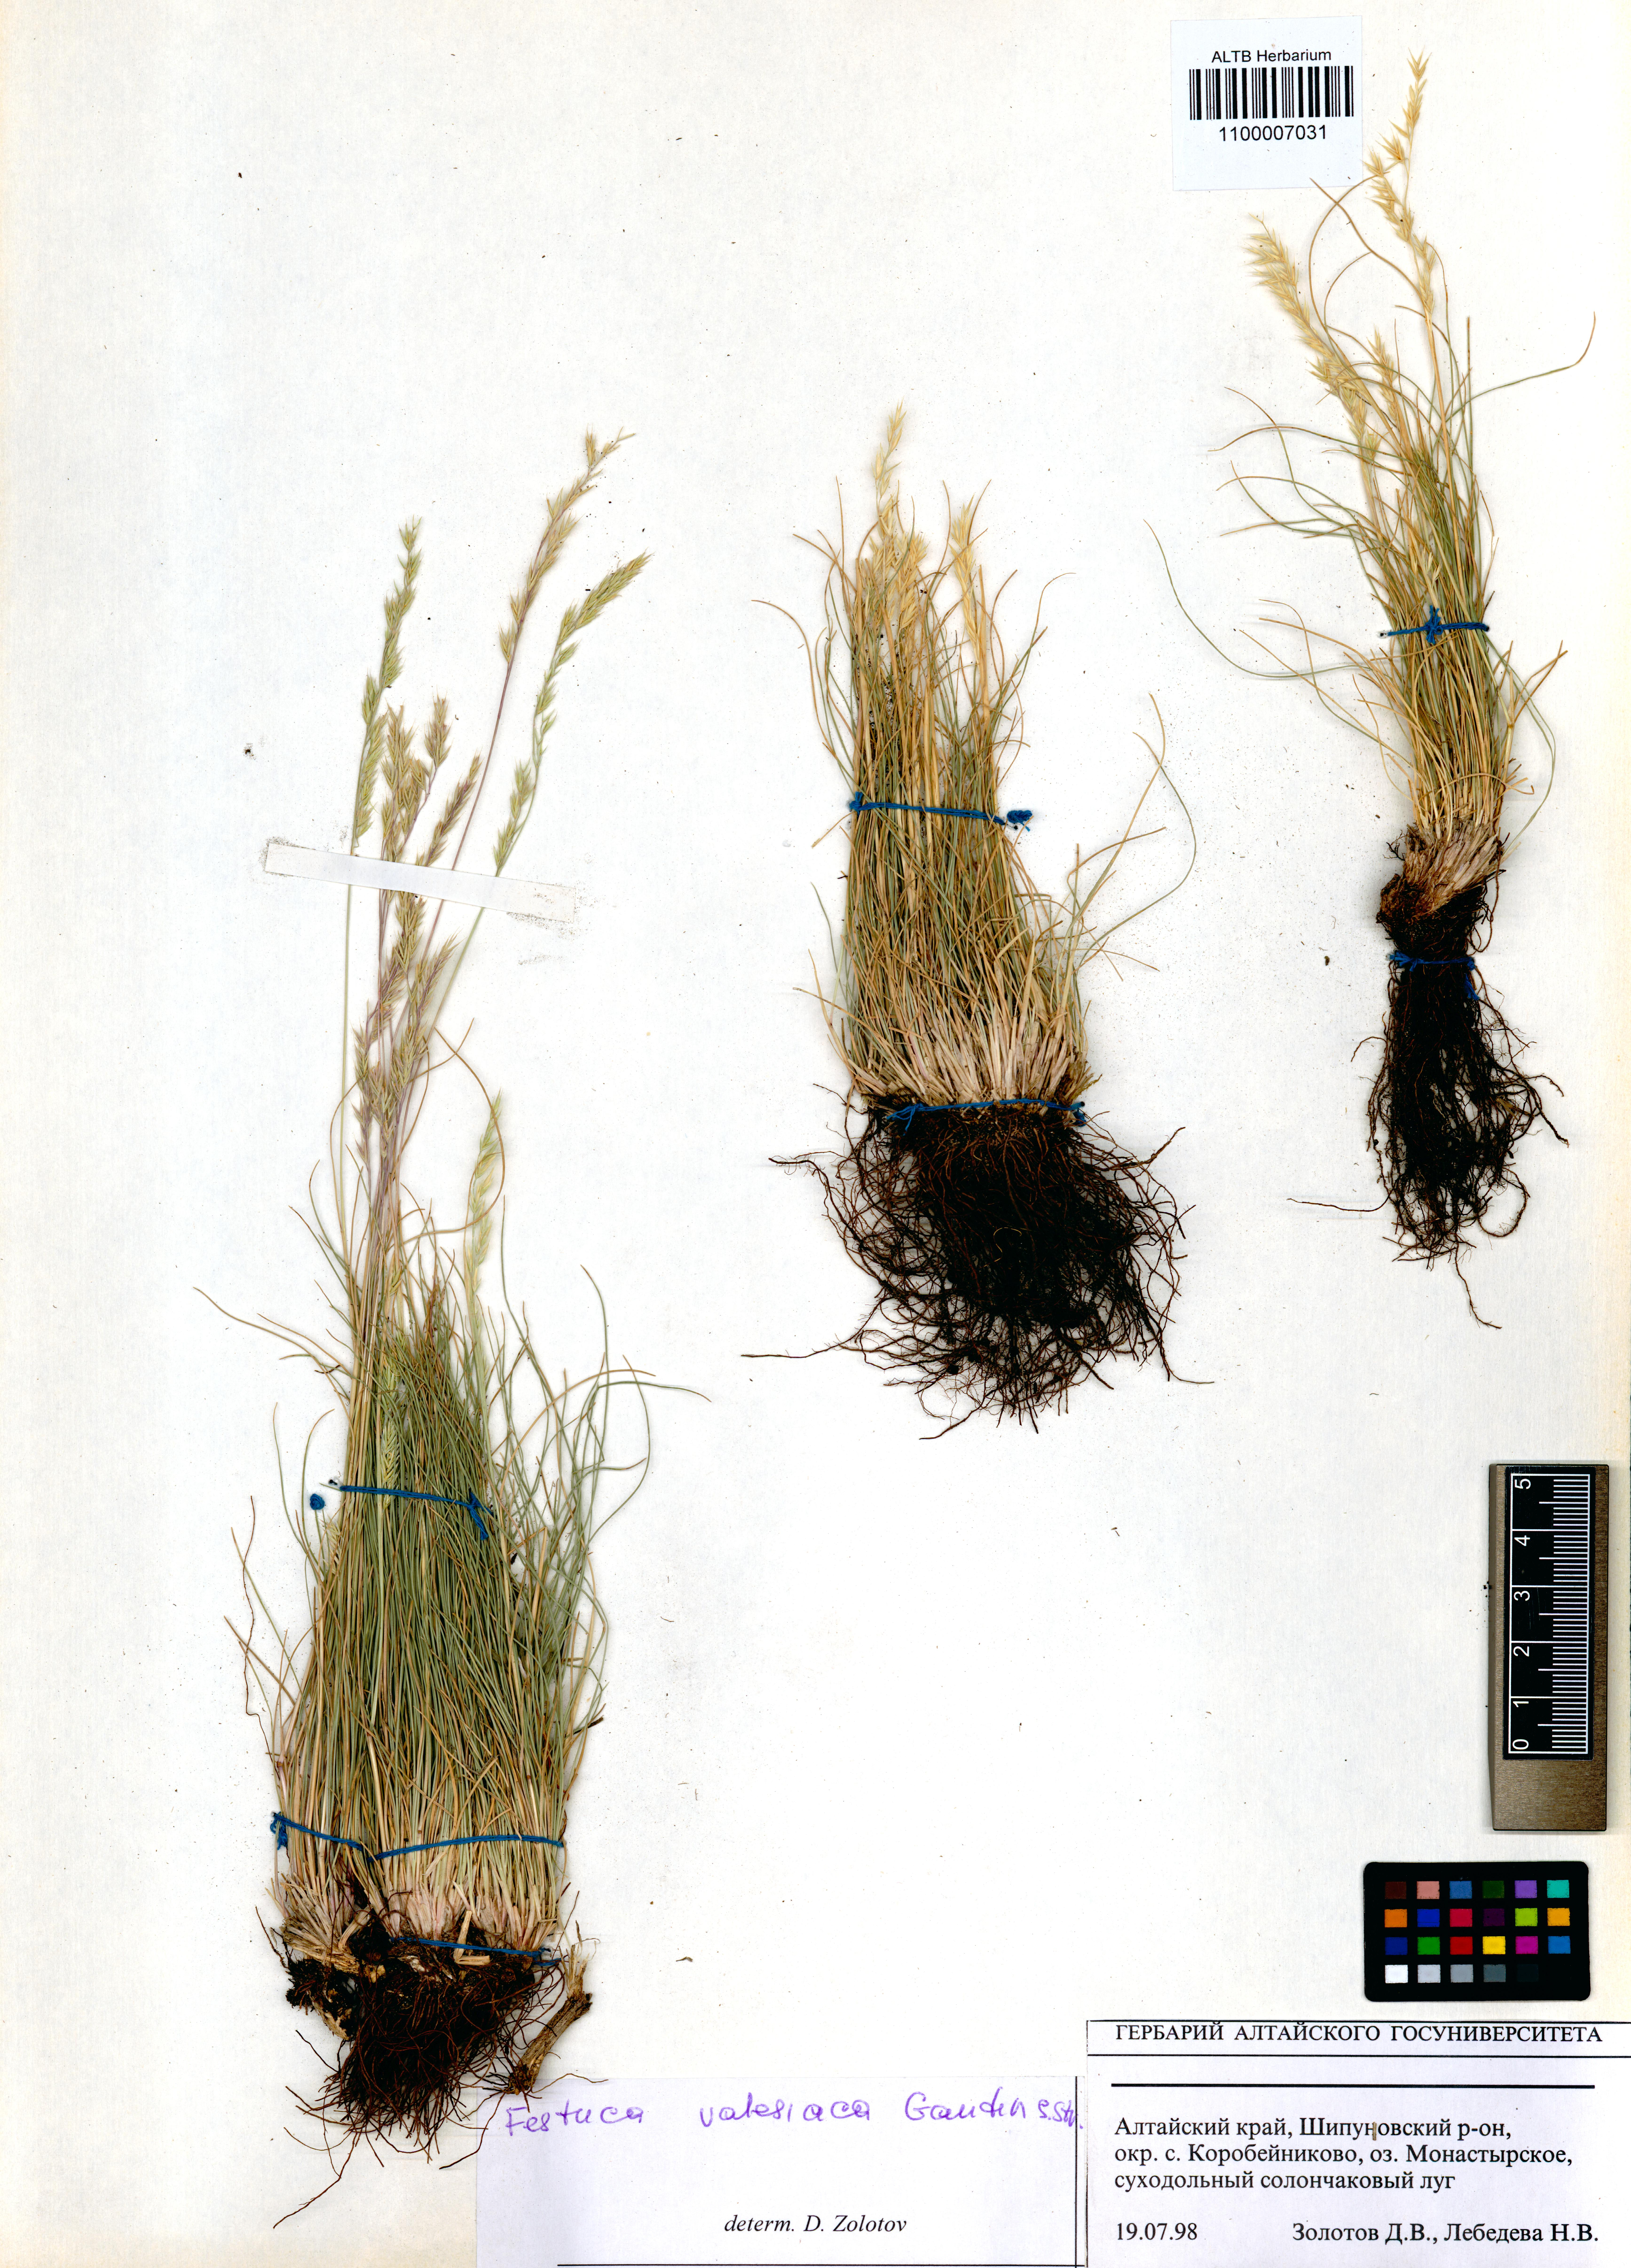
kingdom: Plantae
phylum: Tracheophyta
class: Liliopsida
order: Poales
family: Poaceae
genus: Festuca
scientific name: Festuca valesiaca
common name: Volga fescue
